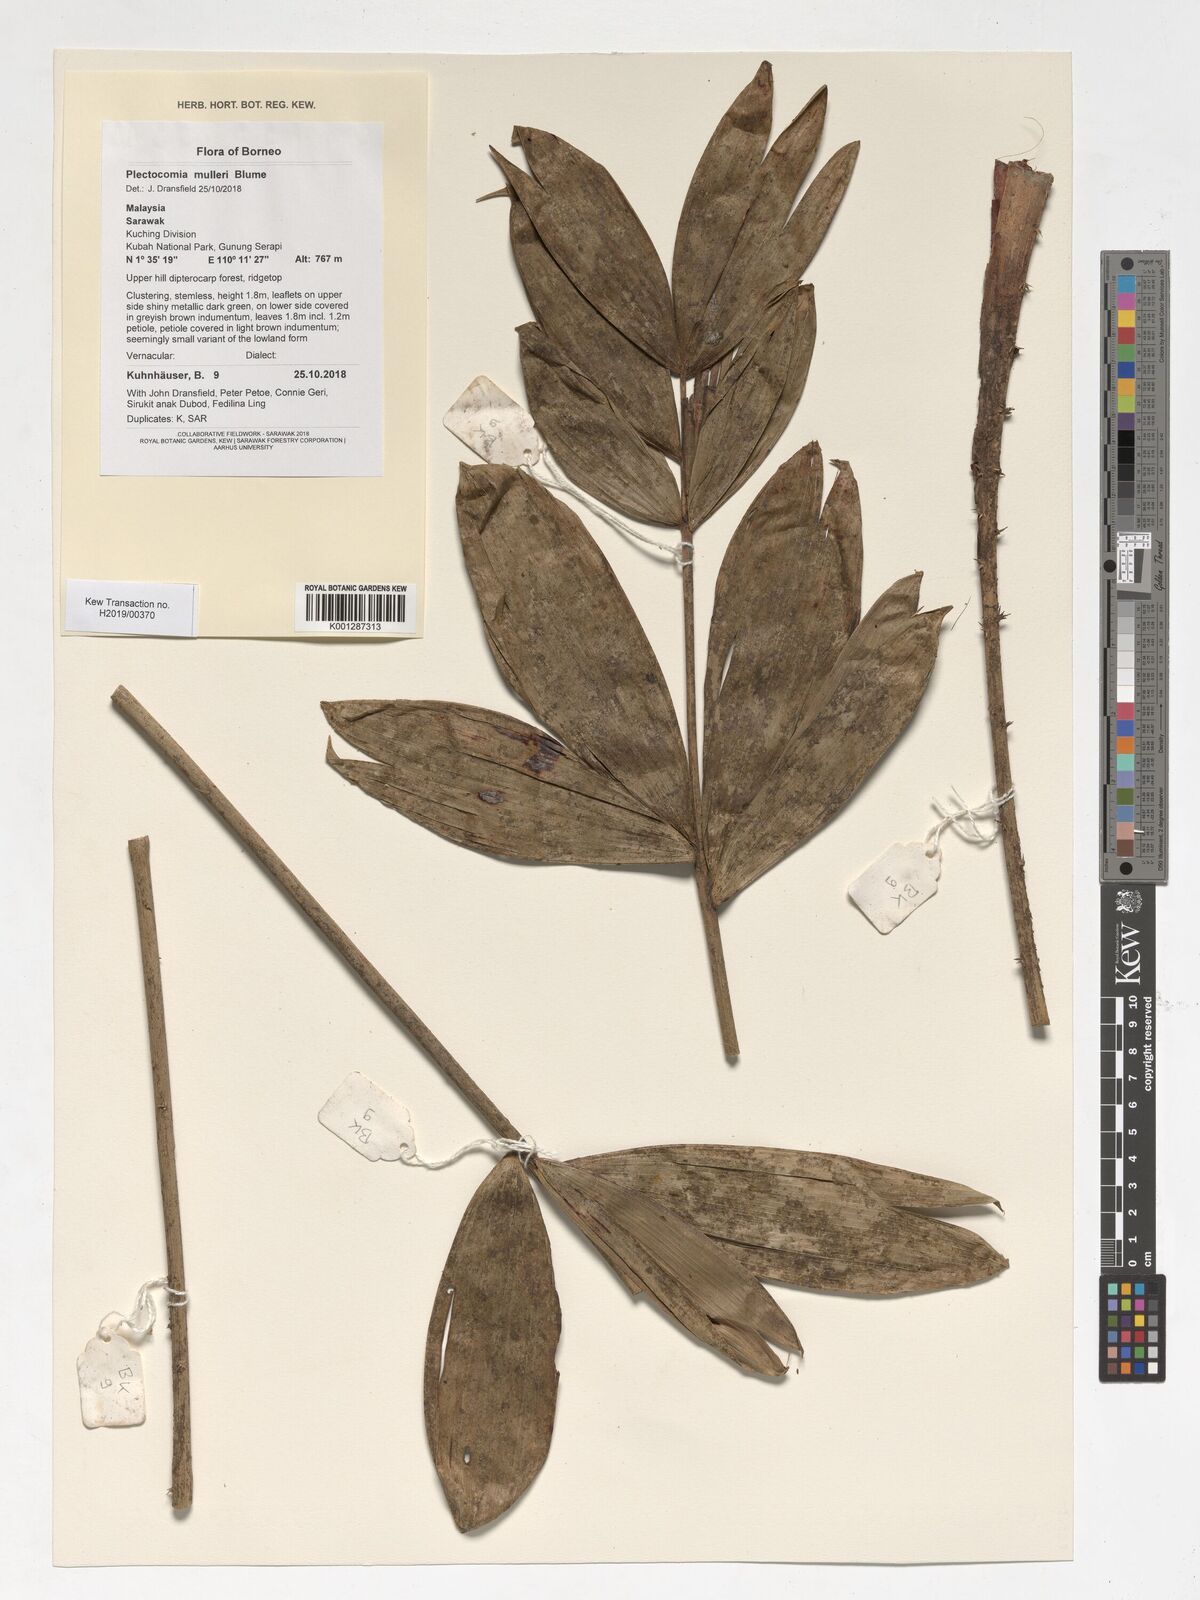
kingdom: Plantae
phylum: Tracheophyta
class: Liliopsida
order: Arecales
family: Arecaceae
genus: Plectocomia
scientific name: Plectocomia mulleri
